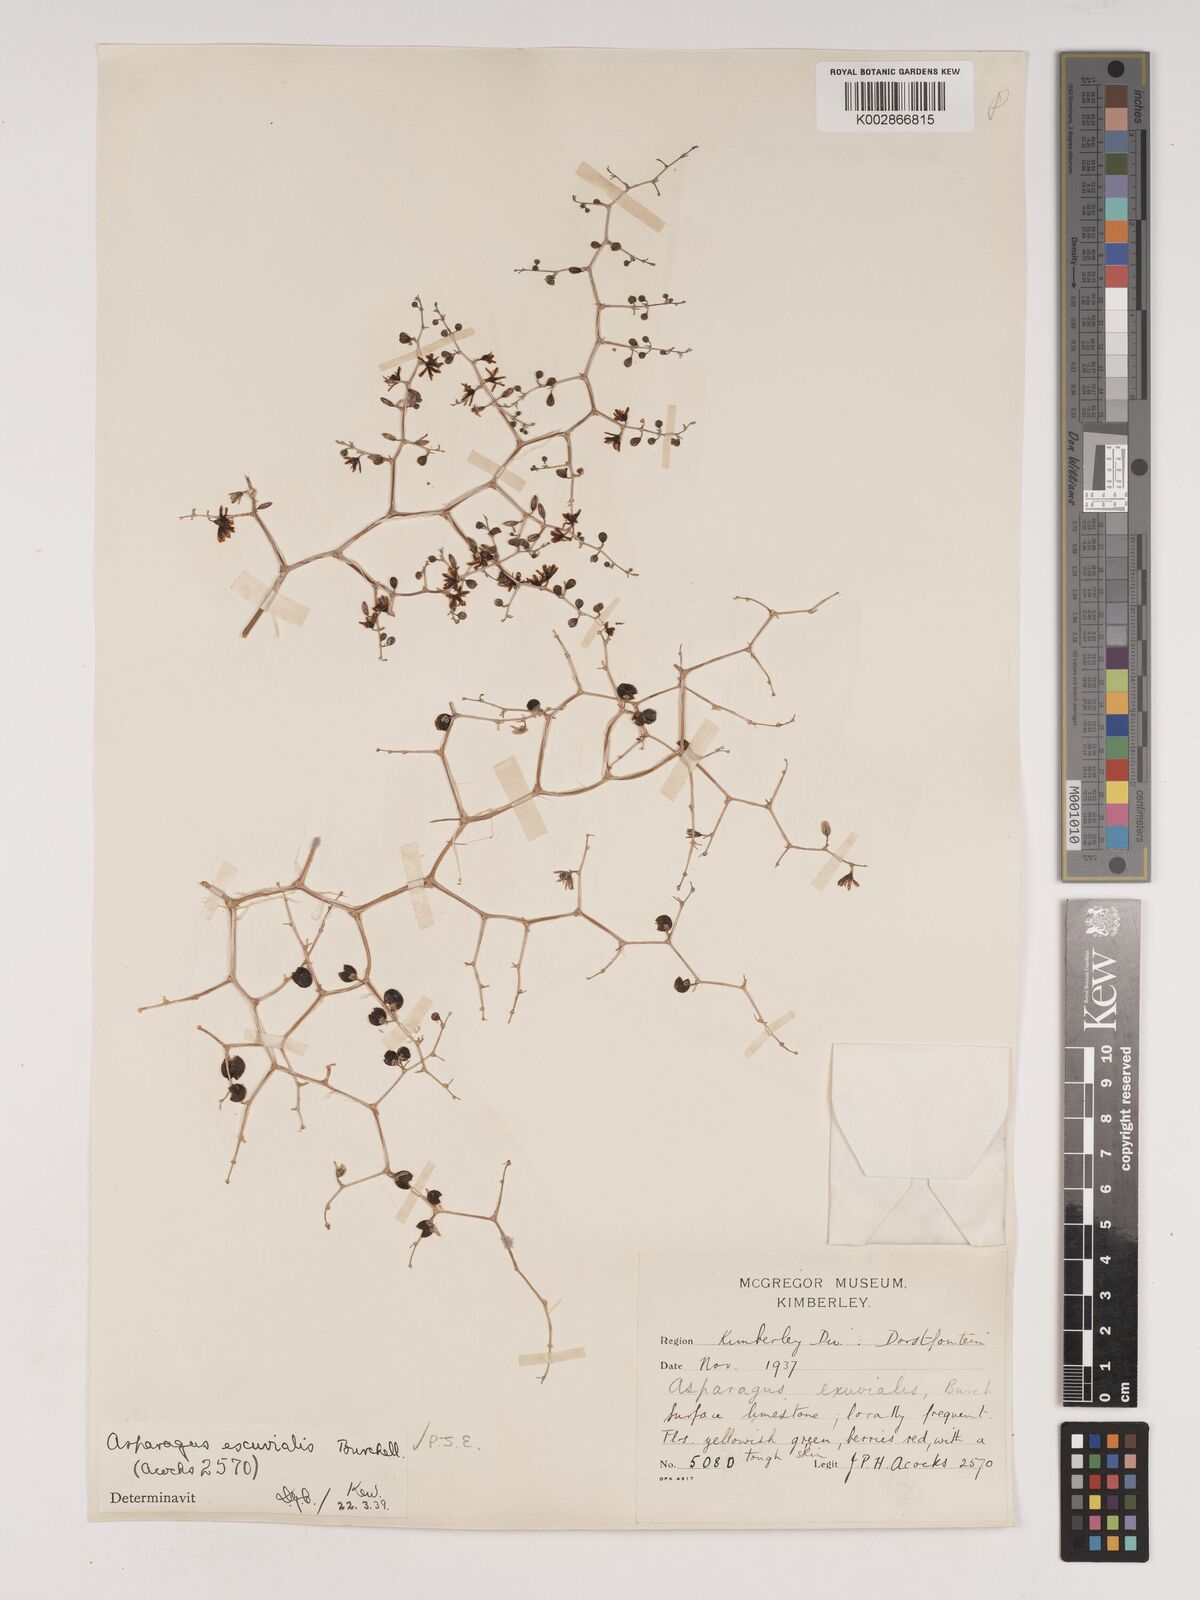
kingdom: Plantae
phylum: Tracheophyta
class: Liliopsida
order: Asparagales
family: Asparagaceae
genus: Asparagus
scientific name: Asparagus exuvialis
